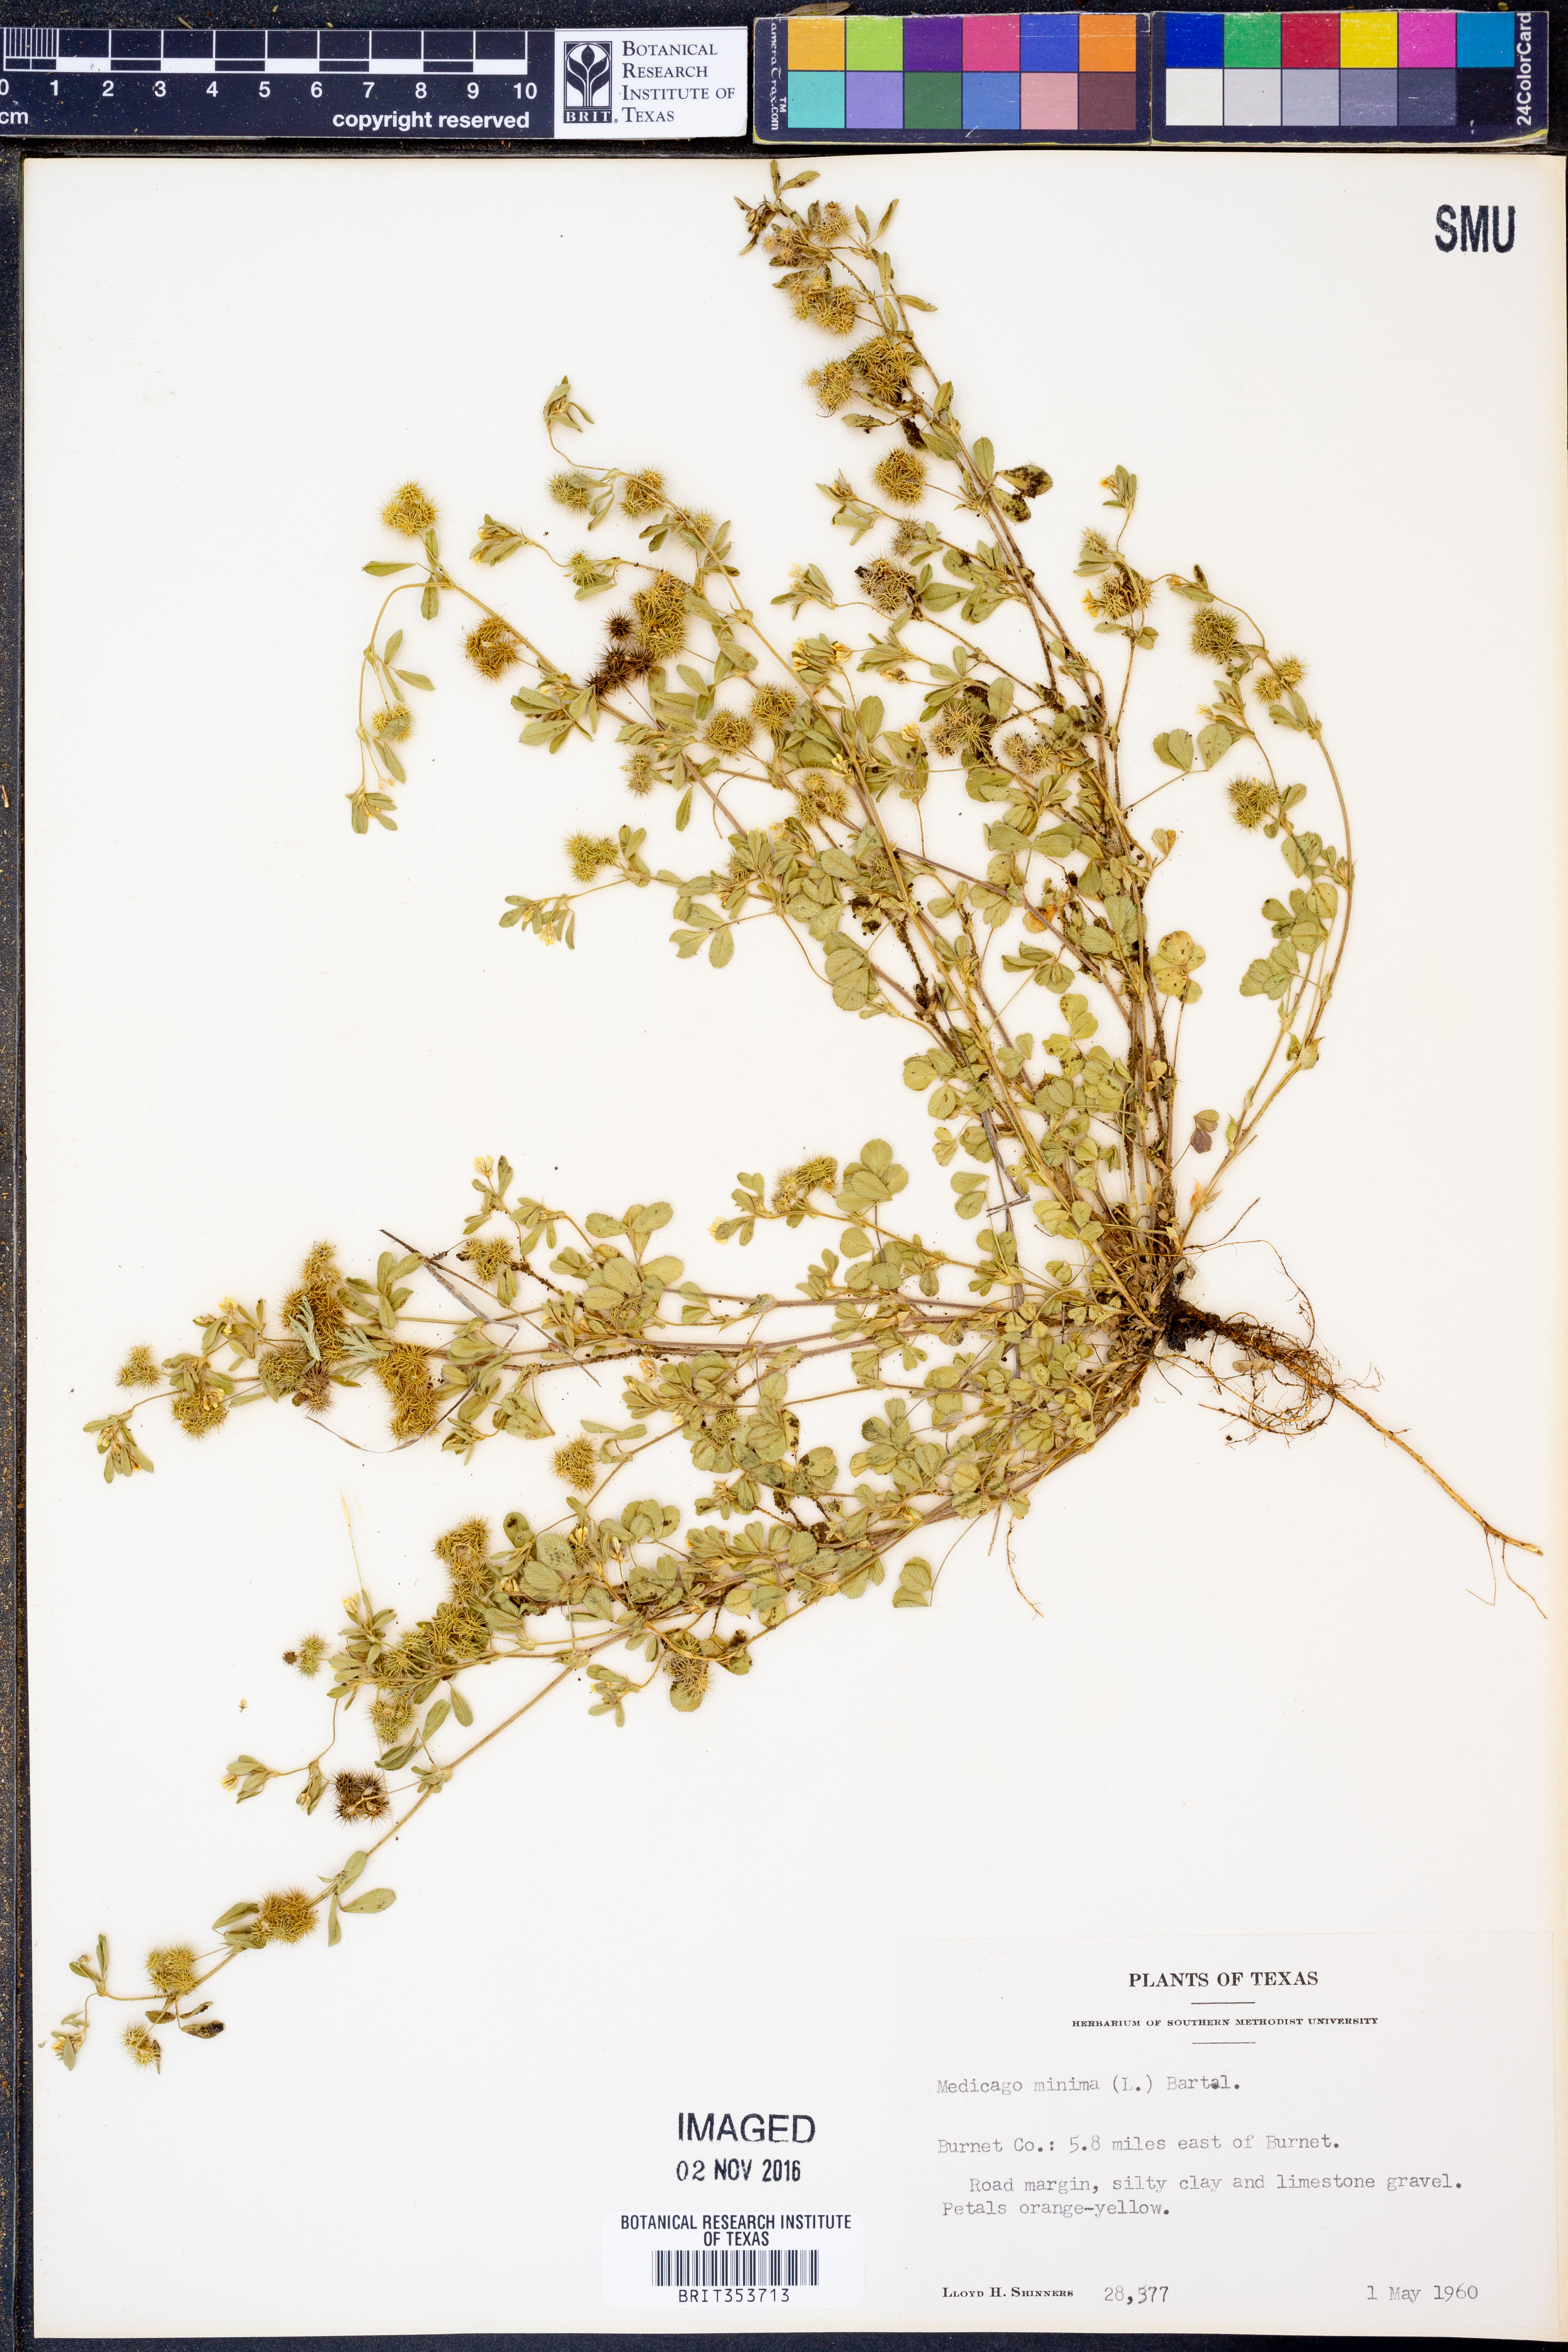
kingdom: Plantae
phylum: Tracheophyta
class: Magnoliopsida
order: Fabales
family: Fabaceae
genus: Medicago
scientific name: Medicago minima
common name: Little bur-clover
